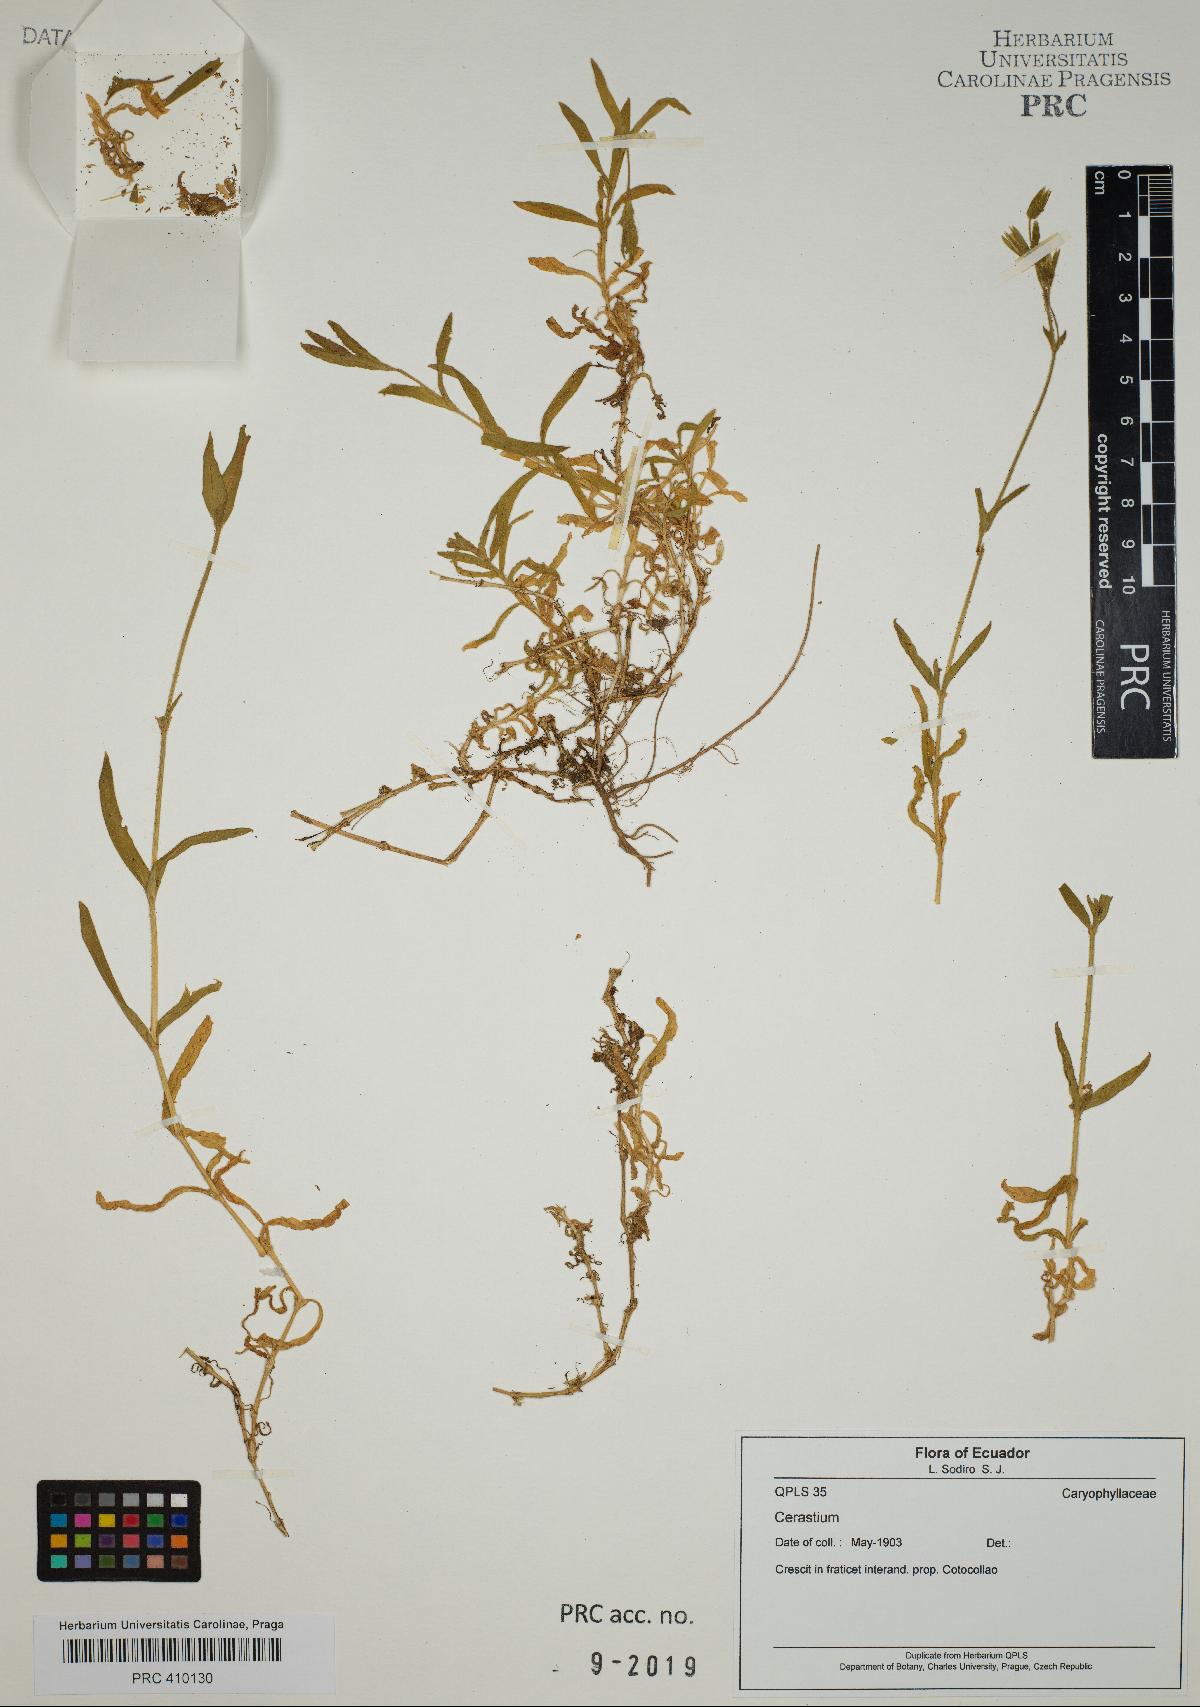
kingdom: Plantae
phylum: Tracheophyta
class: Magnoliopsida
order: Caryophyllales
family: Caryophyllaceae
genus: Cerastium
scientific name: Cerastium
